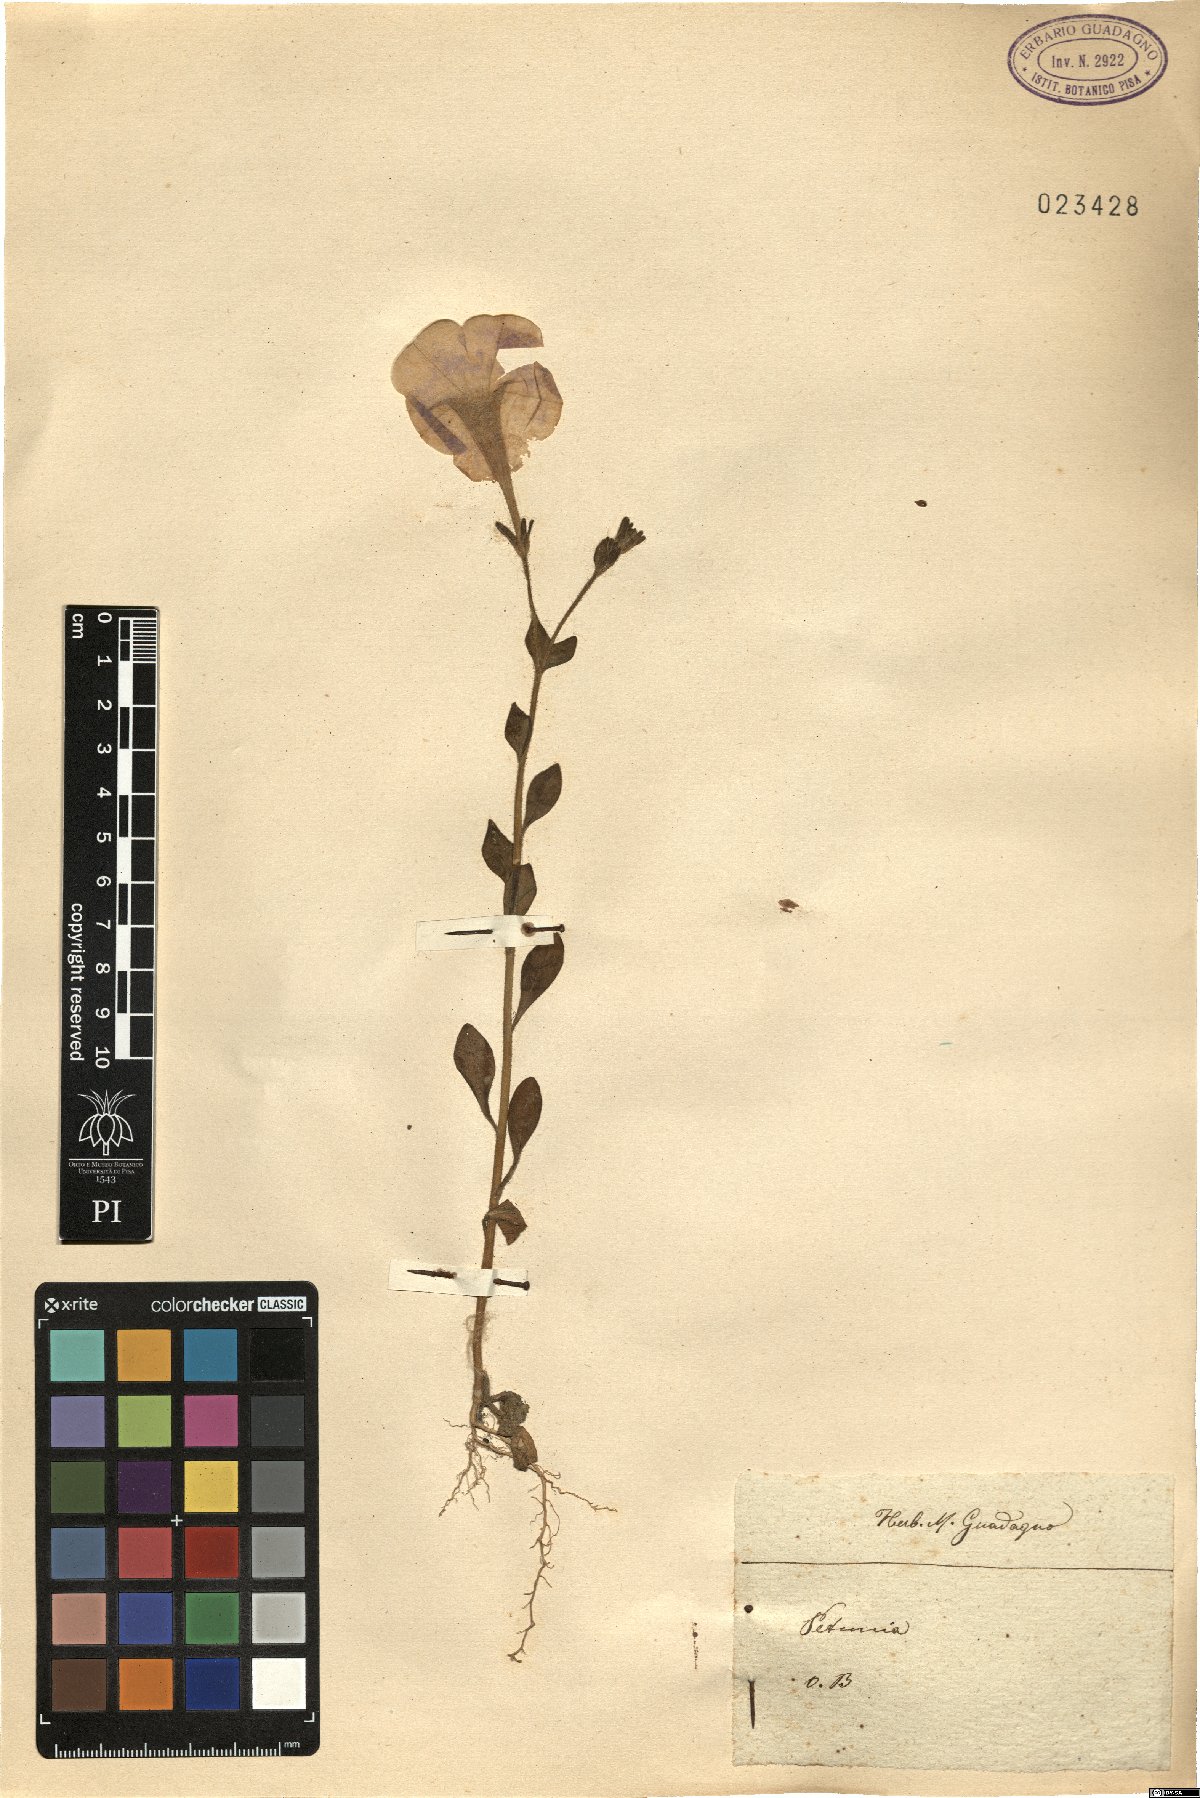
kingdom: Plantae
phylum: Tracheophyta
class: Magnoliopsida
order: Solanales
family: Solanaceae
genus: Petunia
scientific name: Petunia
